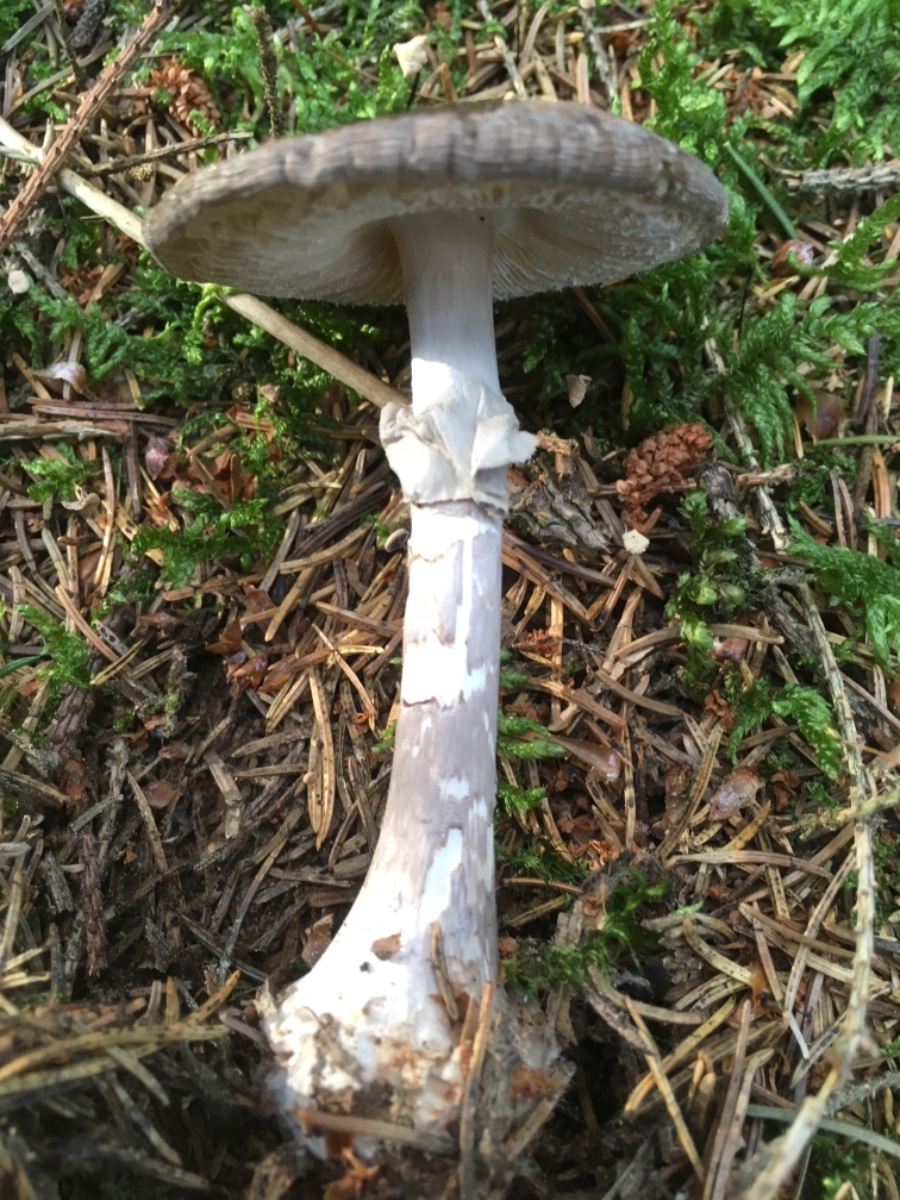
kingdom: Fungi
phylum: Basidiomycota
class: Agaricomycetes
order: Agaricales
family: Amanitaceae
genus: Amanita
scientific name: Amanita porphyria
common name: porfyr-fluesvamp
